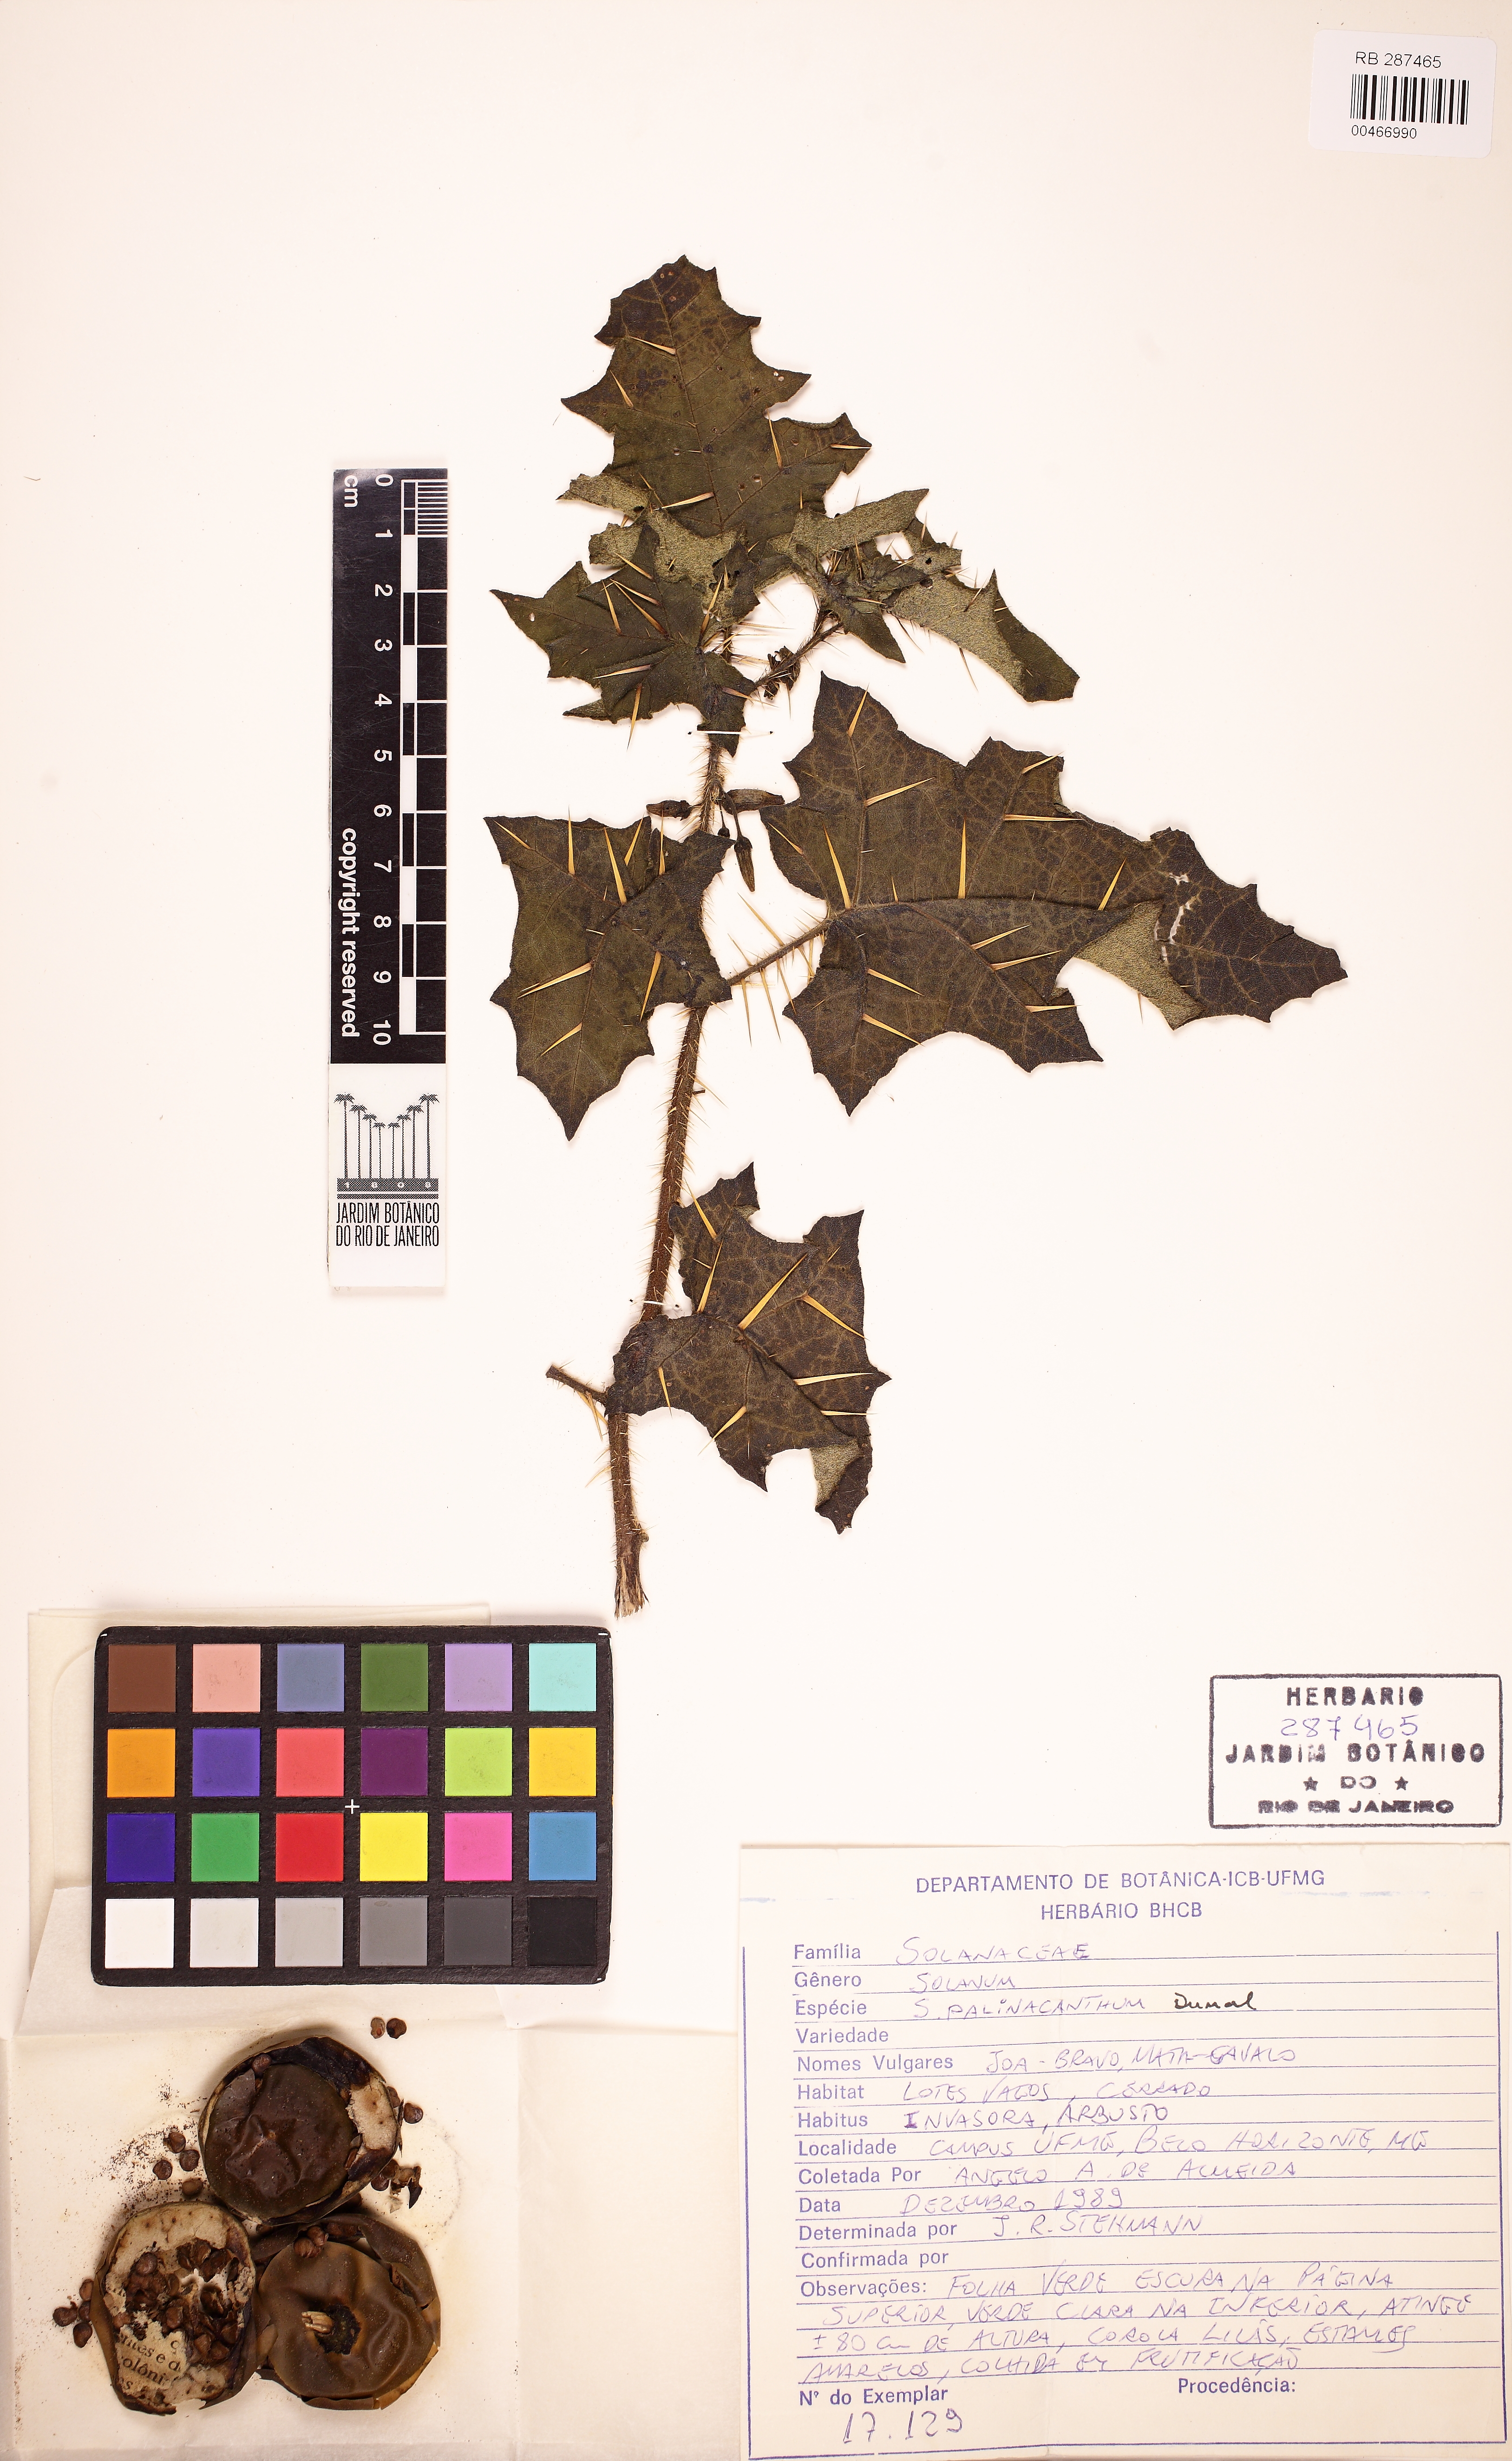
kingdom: Plantae
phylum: Tracheophyta
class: Magnoliopsida
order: Solanales
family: Solanaceae
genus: Solanum
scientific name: Solanum palinacanthum
